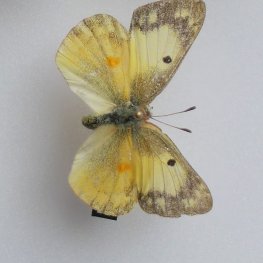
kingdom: Animalia
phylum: Arthropoda
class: Insecta
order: Lepidoptera
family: Pieridae
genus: Colias
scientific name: Colias eurytheme
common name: Orange Sulphur
